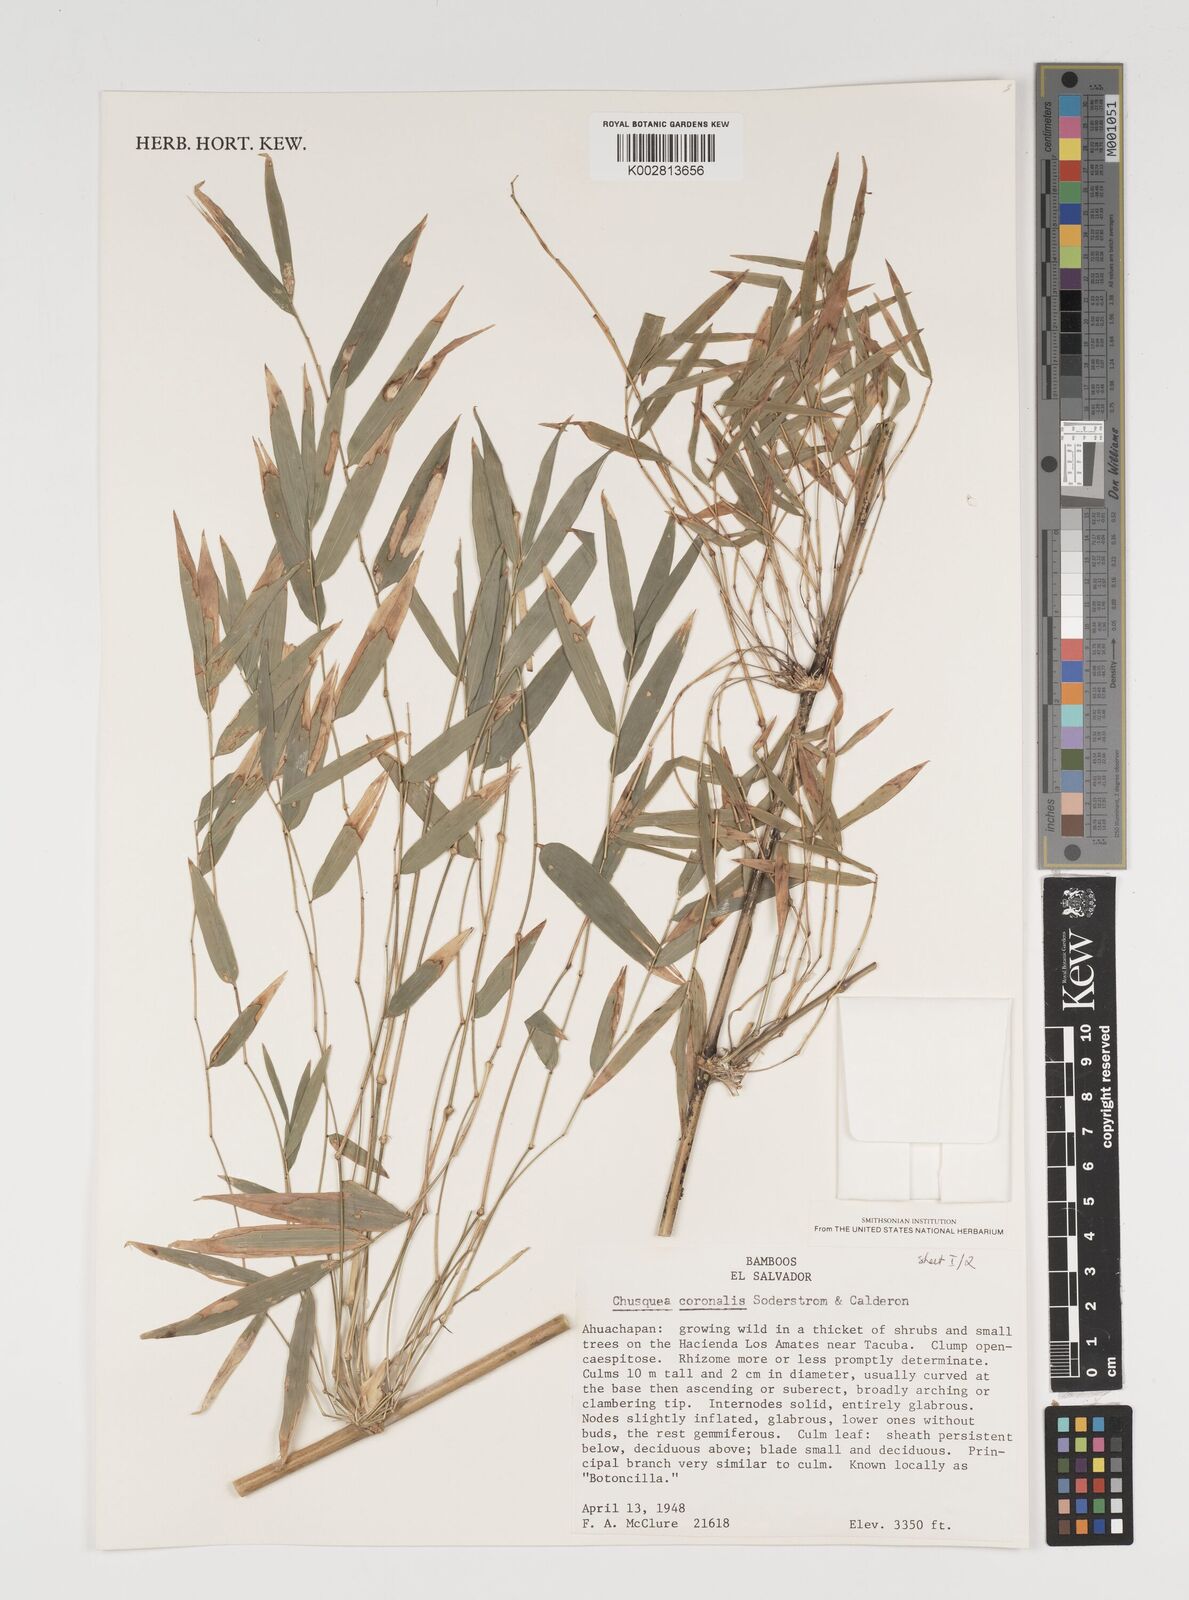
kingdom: Plantae
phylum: Tracheophyta
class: Liliopsida
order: Poales
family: Poaceae
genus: Chusquea
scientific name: Chusquea coronalis
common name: Machris bamboo
